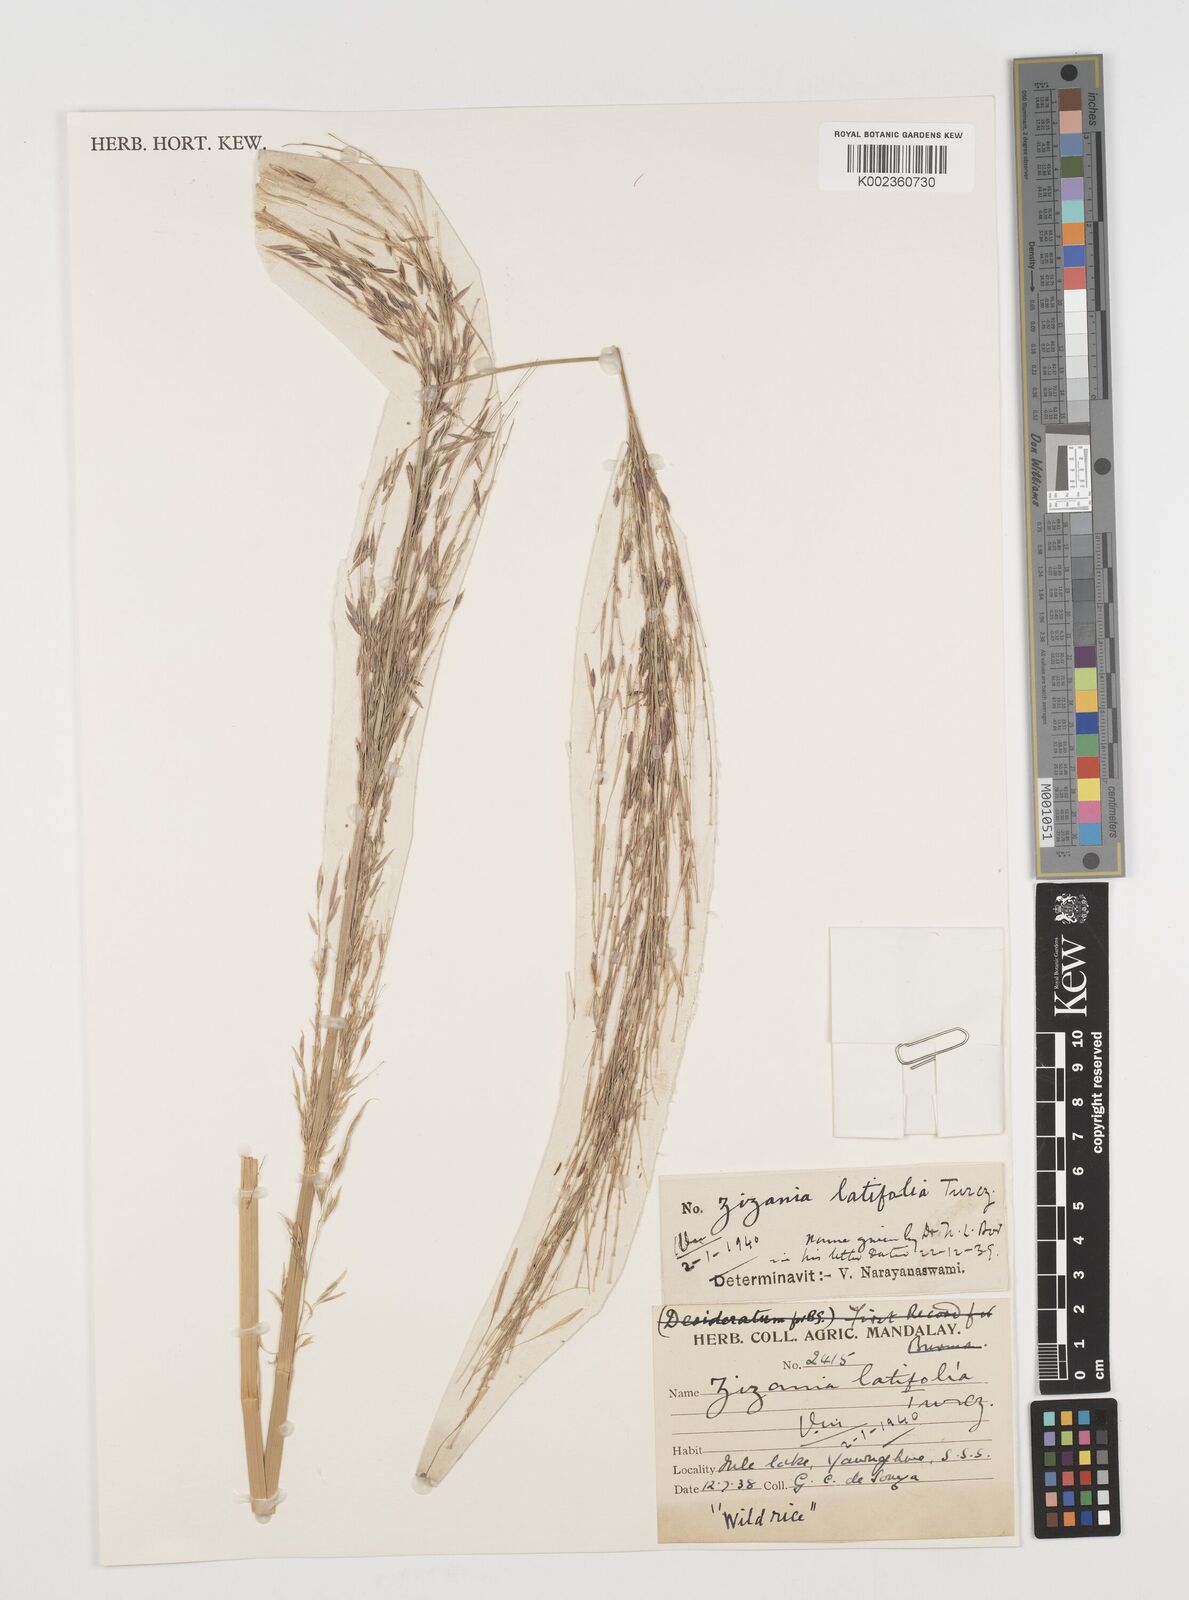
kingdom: Plantae
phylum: Tracheophyta
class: Liliopsida
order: Poales
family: Poaceae
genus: Zizania
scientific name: Zizania latifolia
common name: Manchurian wildrice
